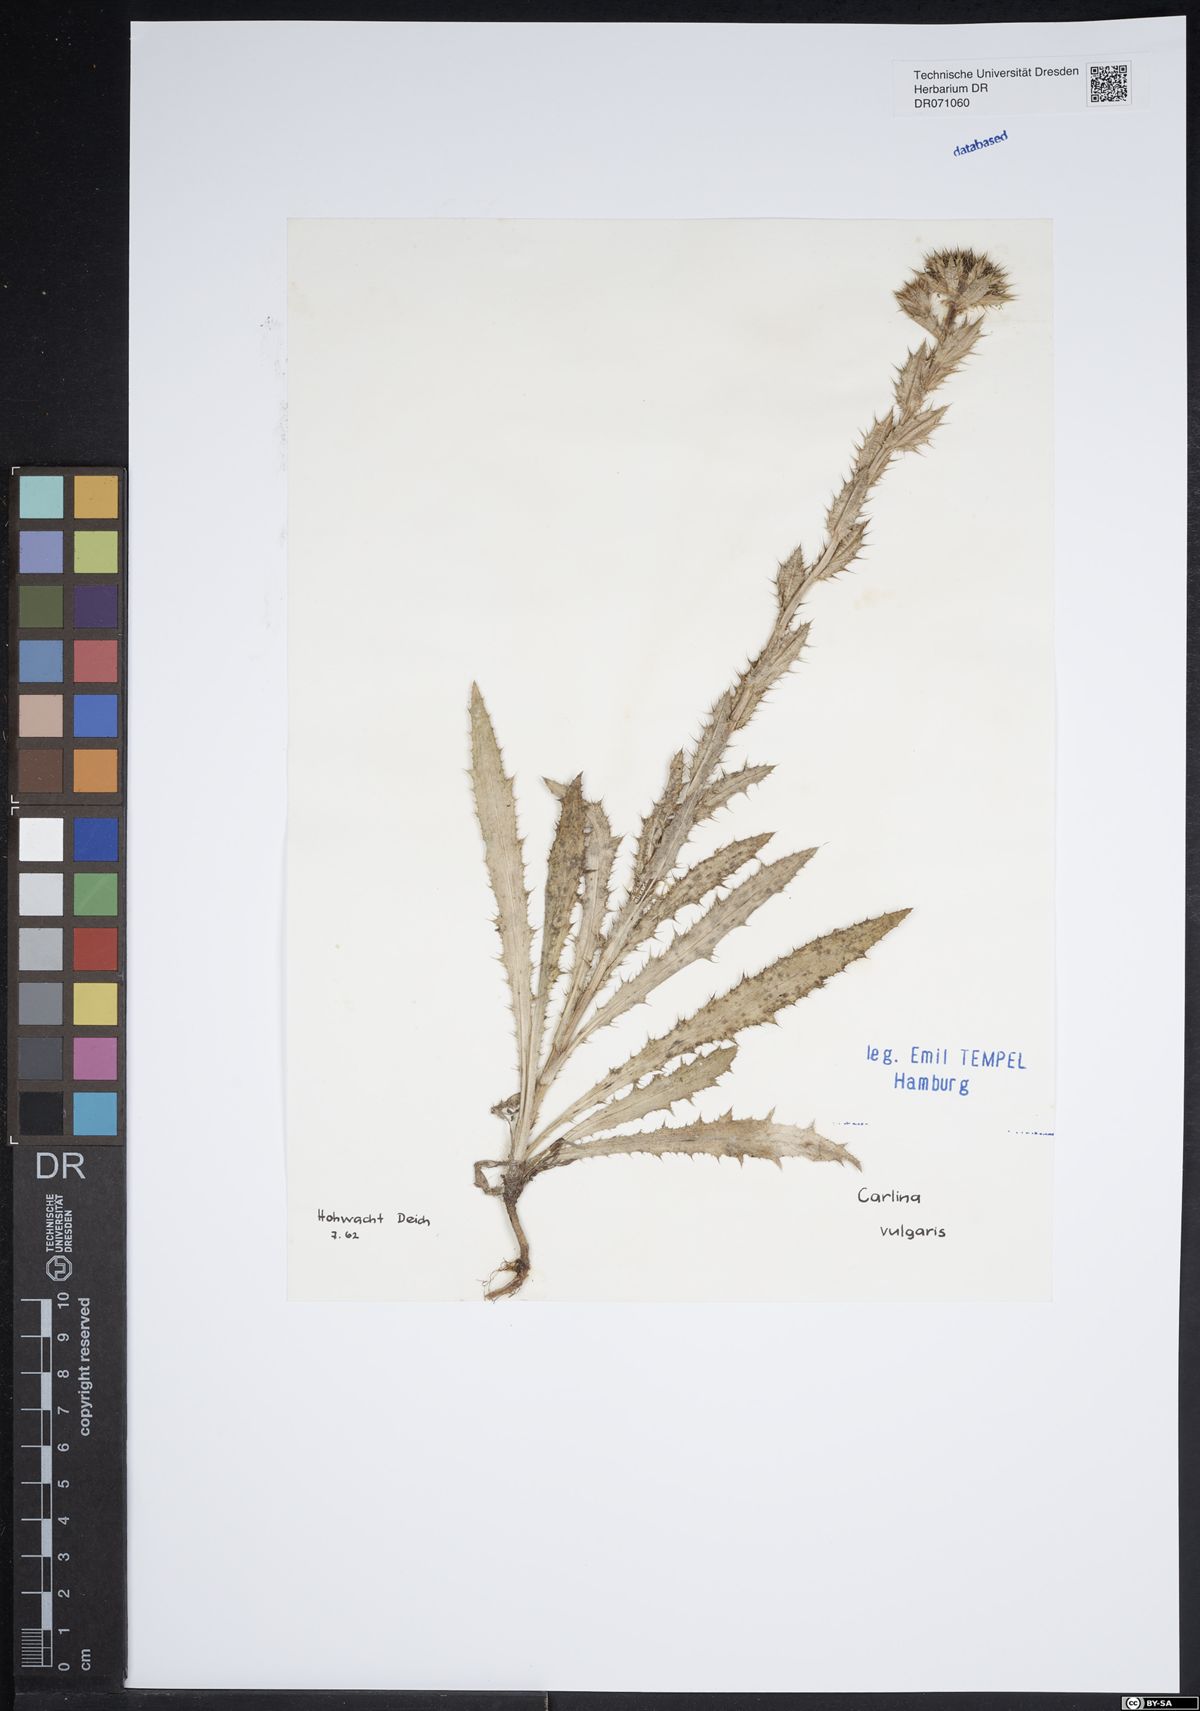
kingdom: Plantae
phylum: Tracheophyta
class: Magnoliopsida
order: Asterales
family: Asteraceae
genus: Carlina
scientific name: Carlina vulgaris
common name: Carline thistle
